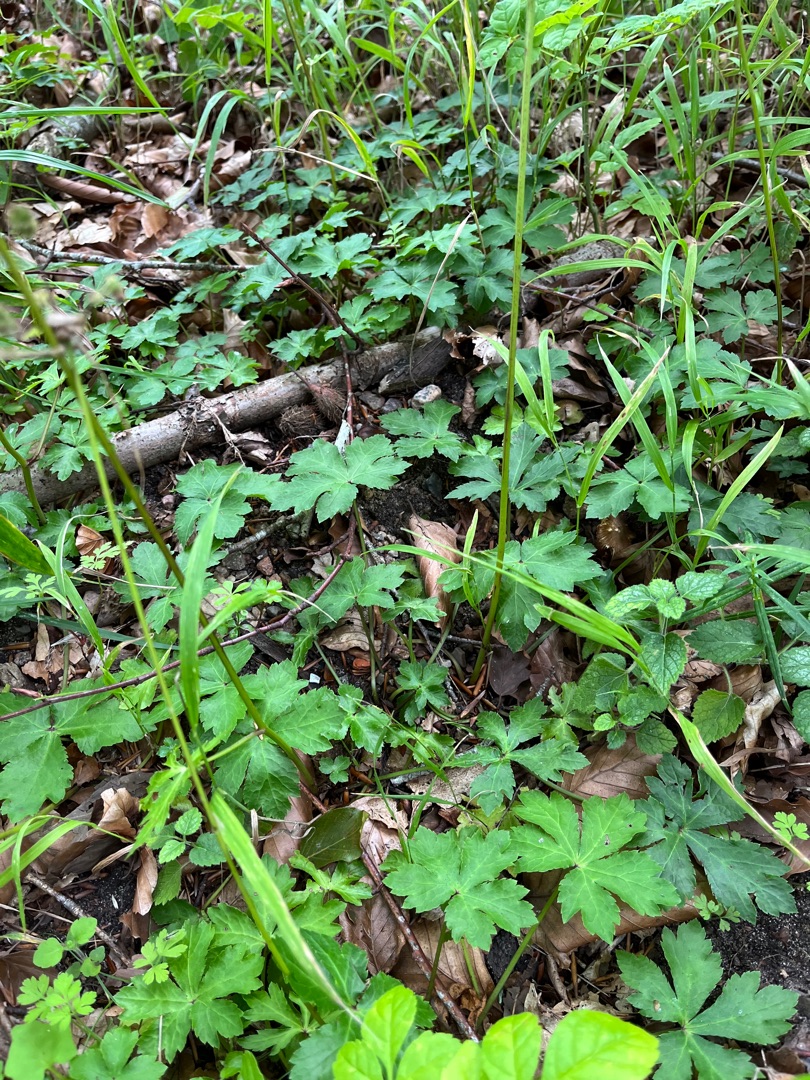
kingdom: Plantae
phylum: Tracheophyta
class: Magnoliopsida
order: Apiales
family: Apiaceae
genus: Sanicula
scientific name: Sanicula europaea
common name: Sanikel
